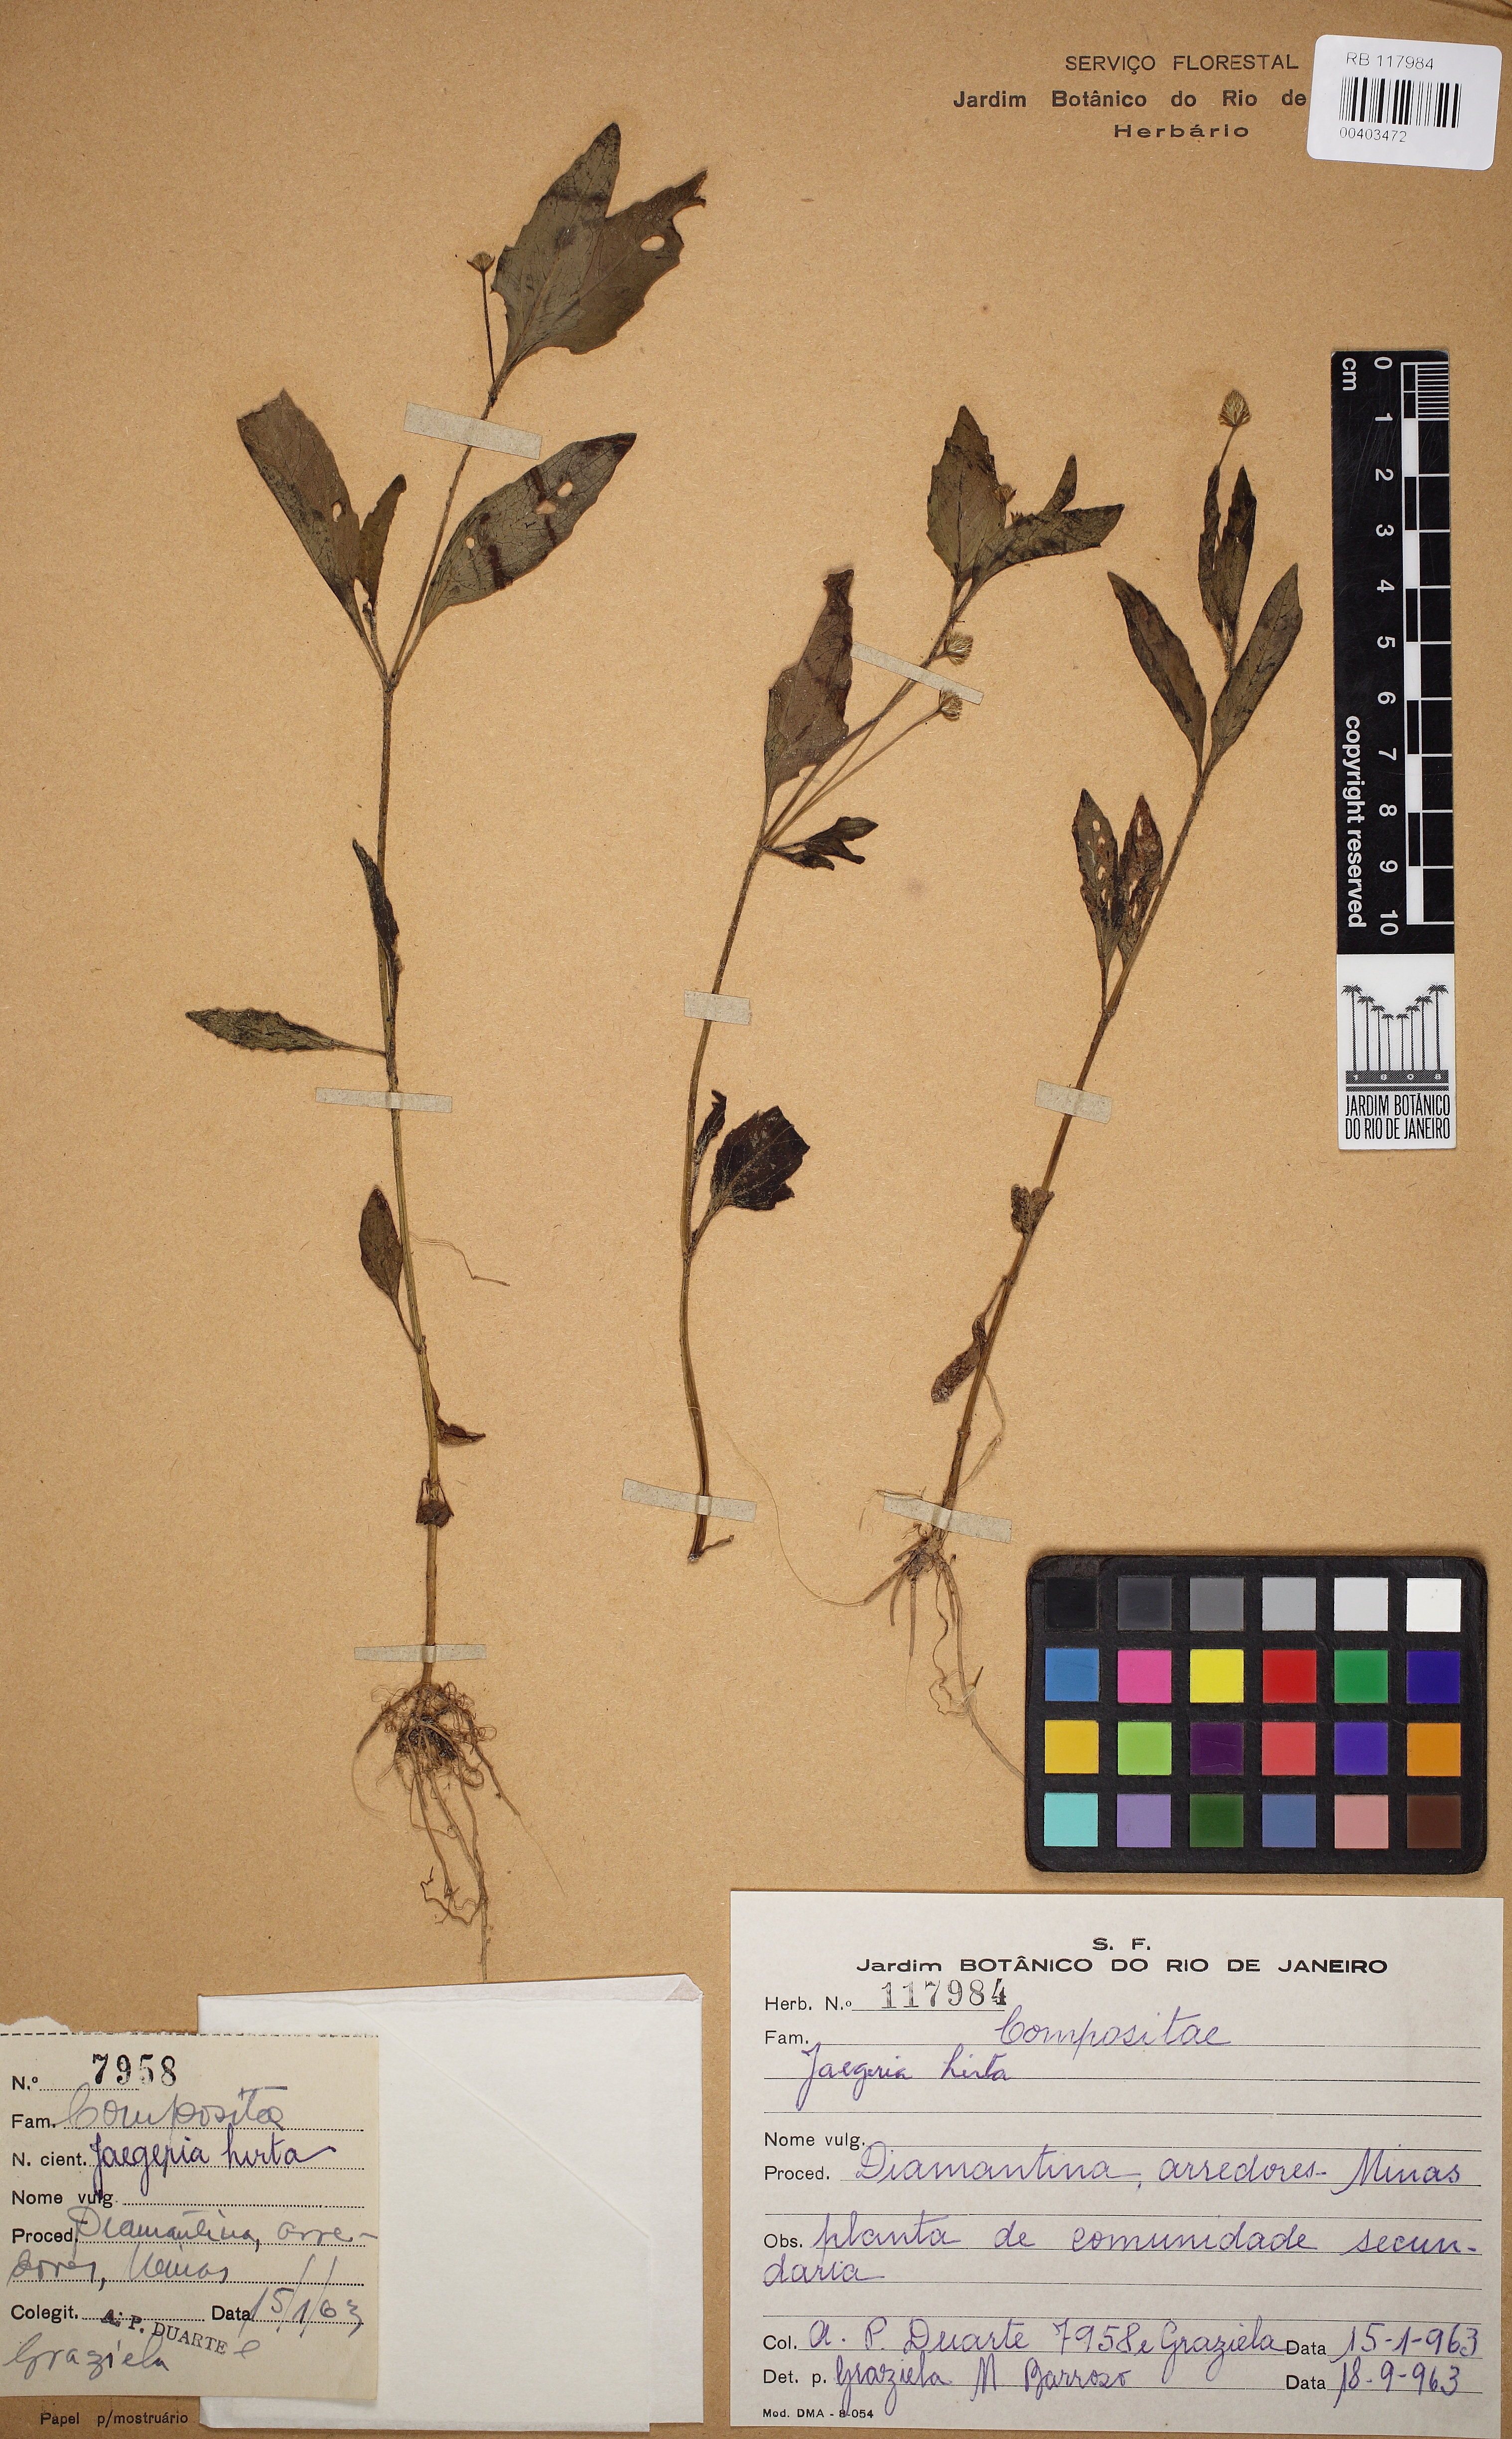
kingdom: Plantae
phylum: Tracheophyta
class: Magnoliopsida
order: Asterales
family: Asteraceae
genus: Jaegeria
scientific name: Jaegeria hirta
